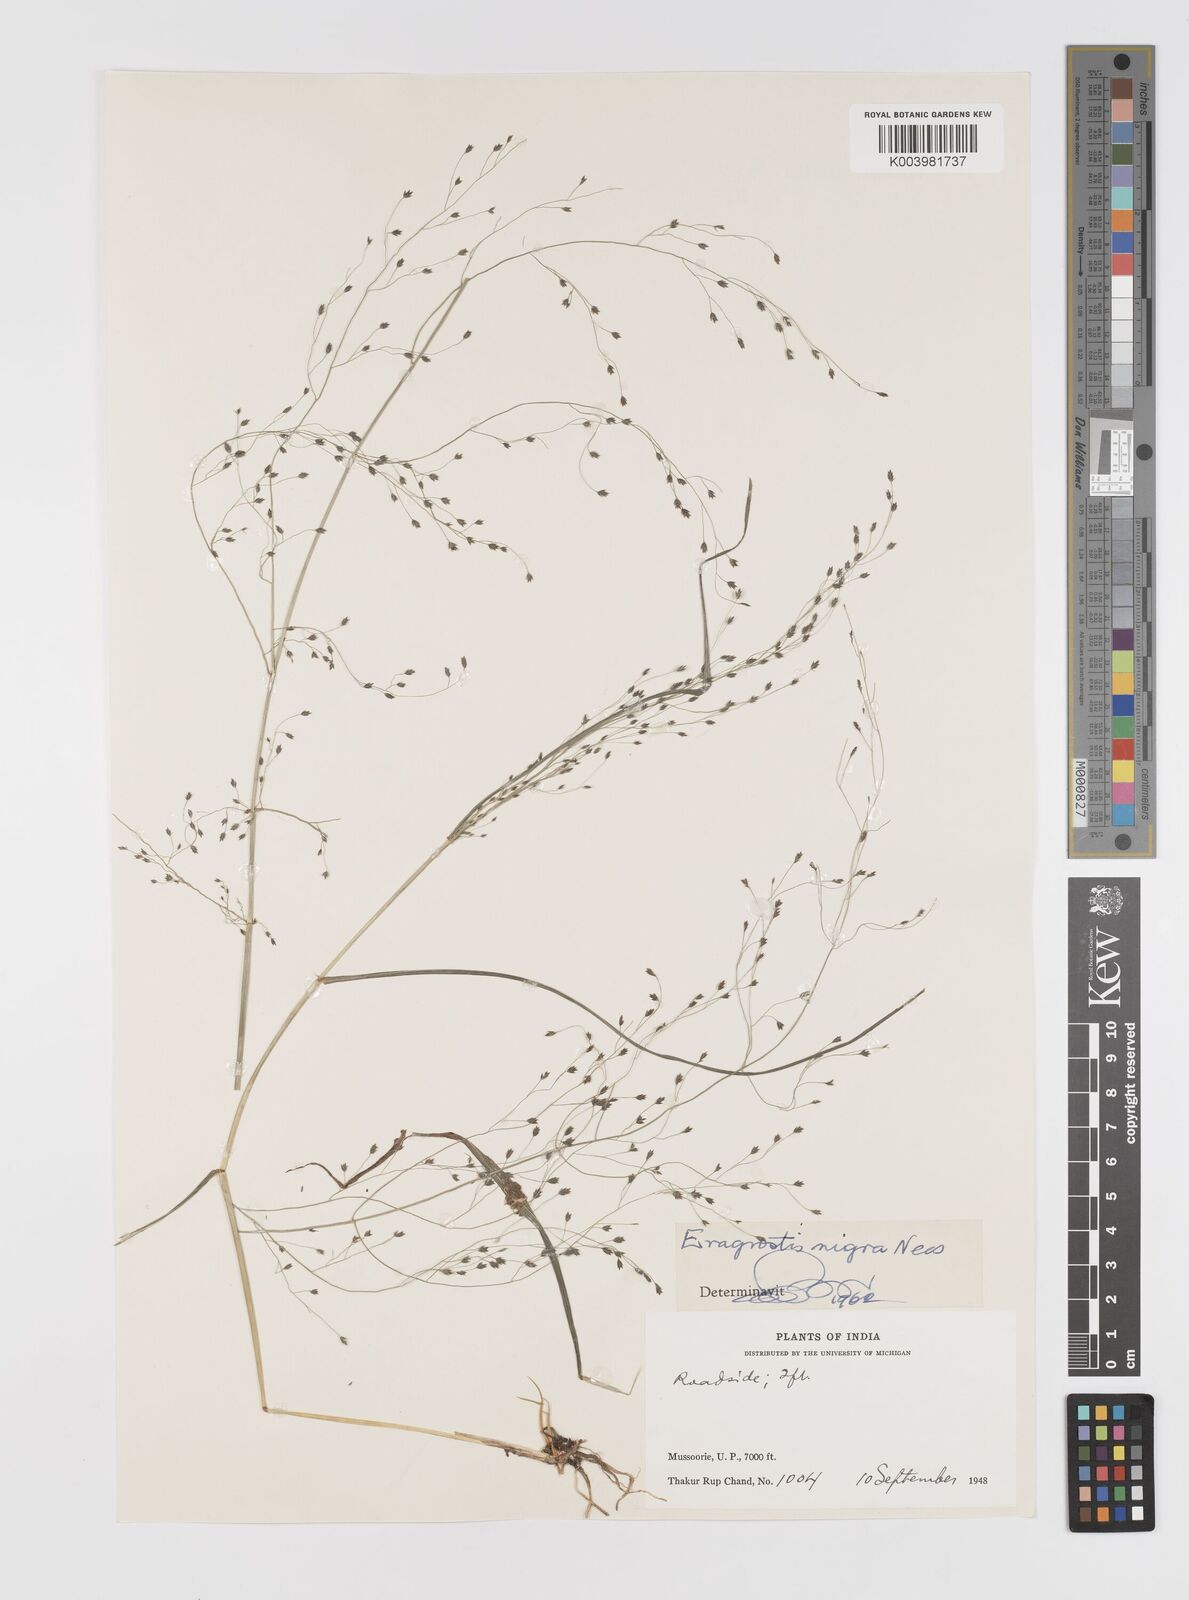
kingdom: Plantae
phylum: Tracheophyta
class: Liliopsida
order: Poales
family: Poaceae
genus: Eragrostis
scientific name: Eragrostis nigra
